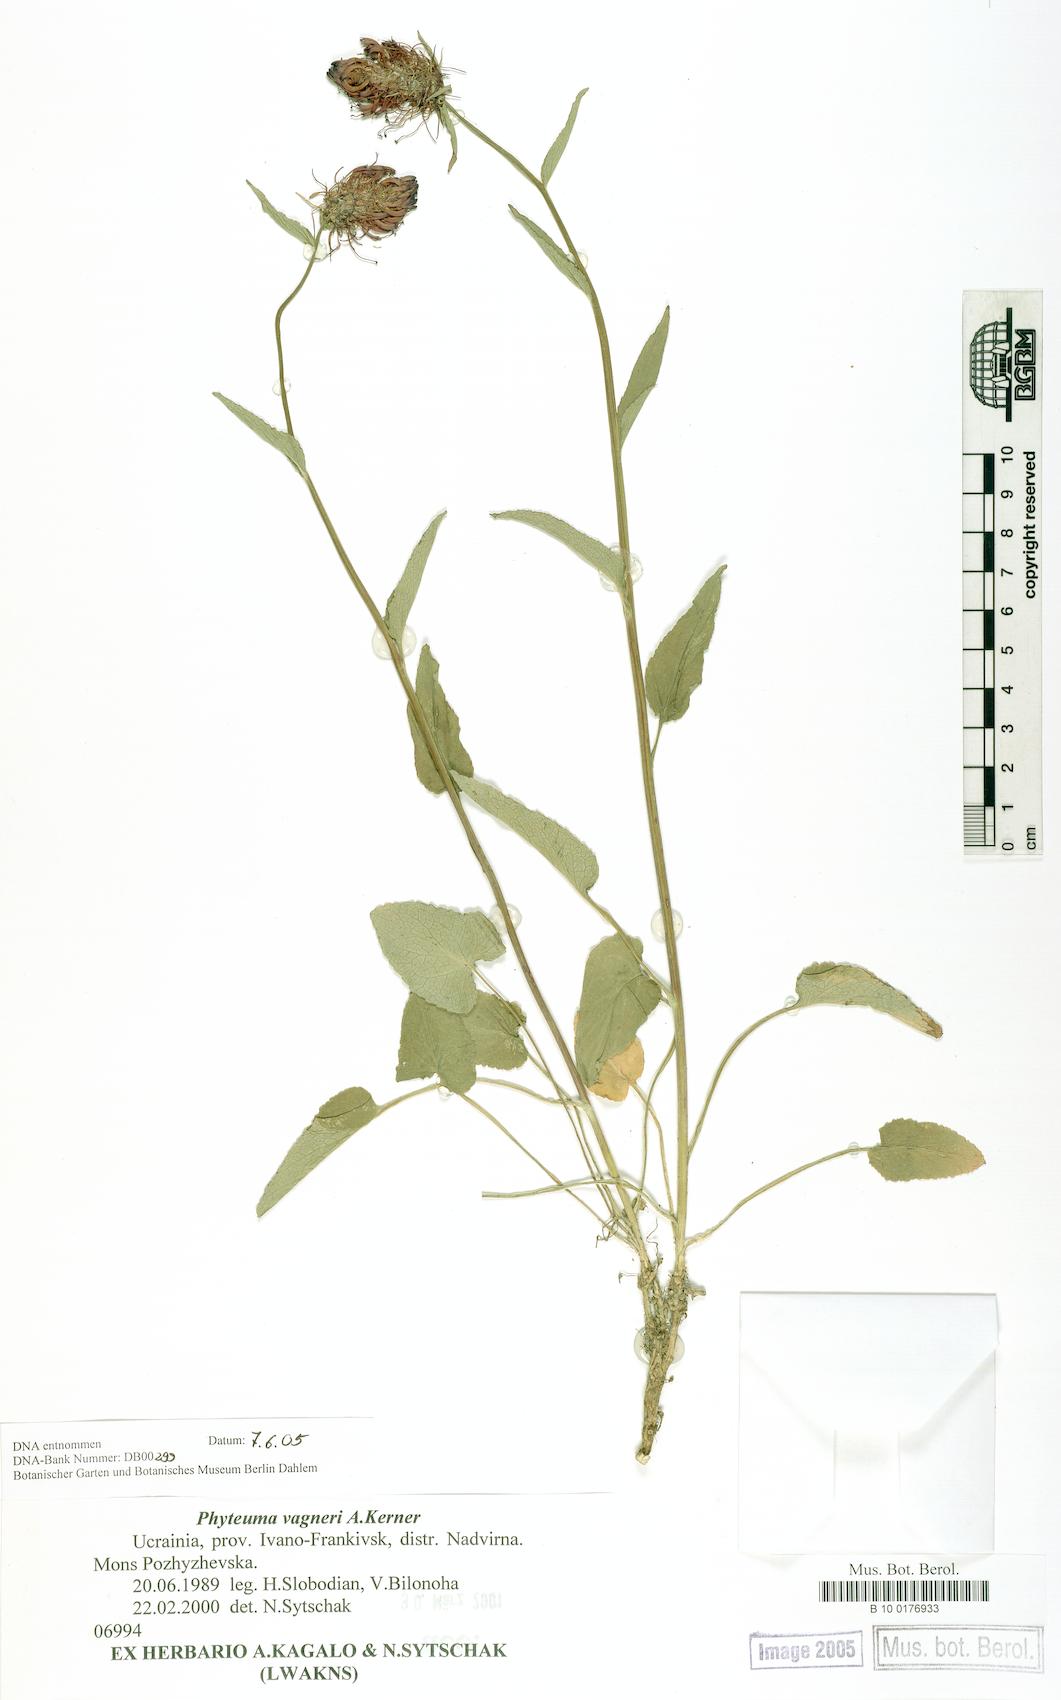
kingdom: Plantae
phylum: Tracheophyta
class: Magnoliopsida
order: Asterales
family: Campanulaceae
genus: Phyteuma
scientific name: Phyteuma vagneri
